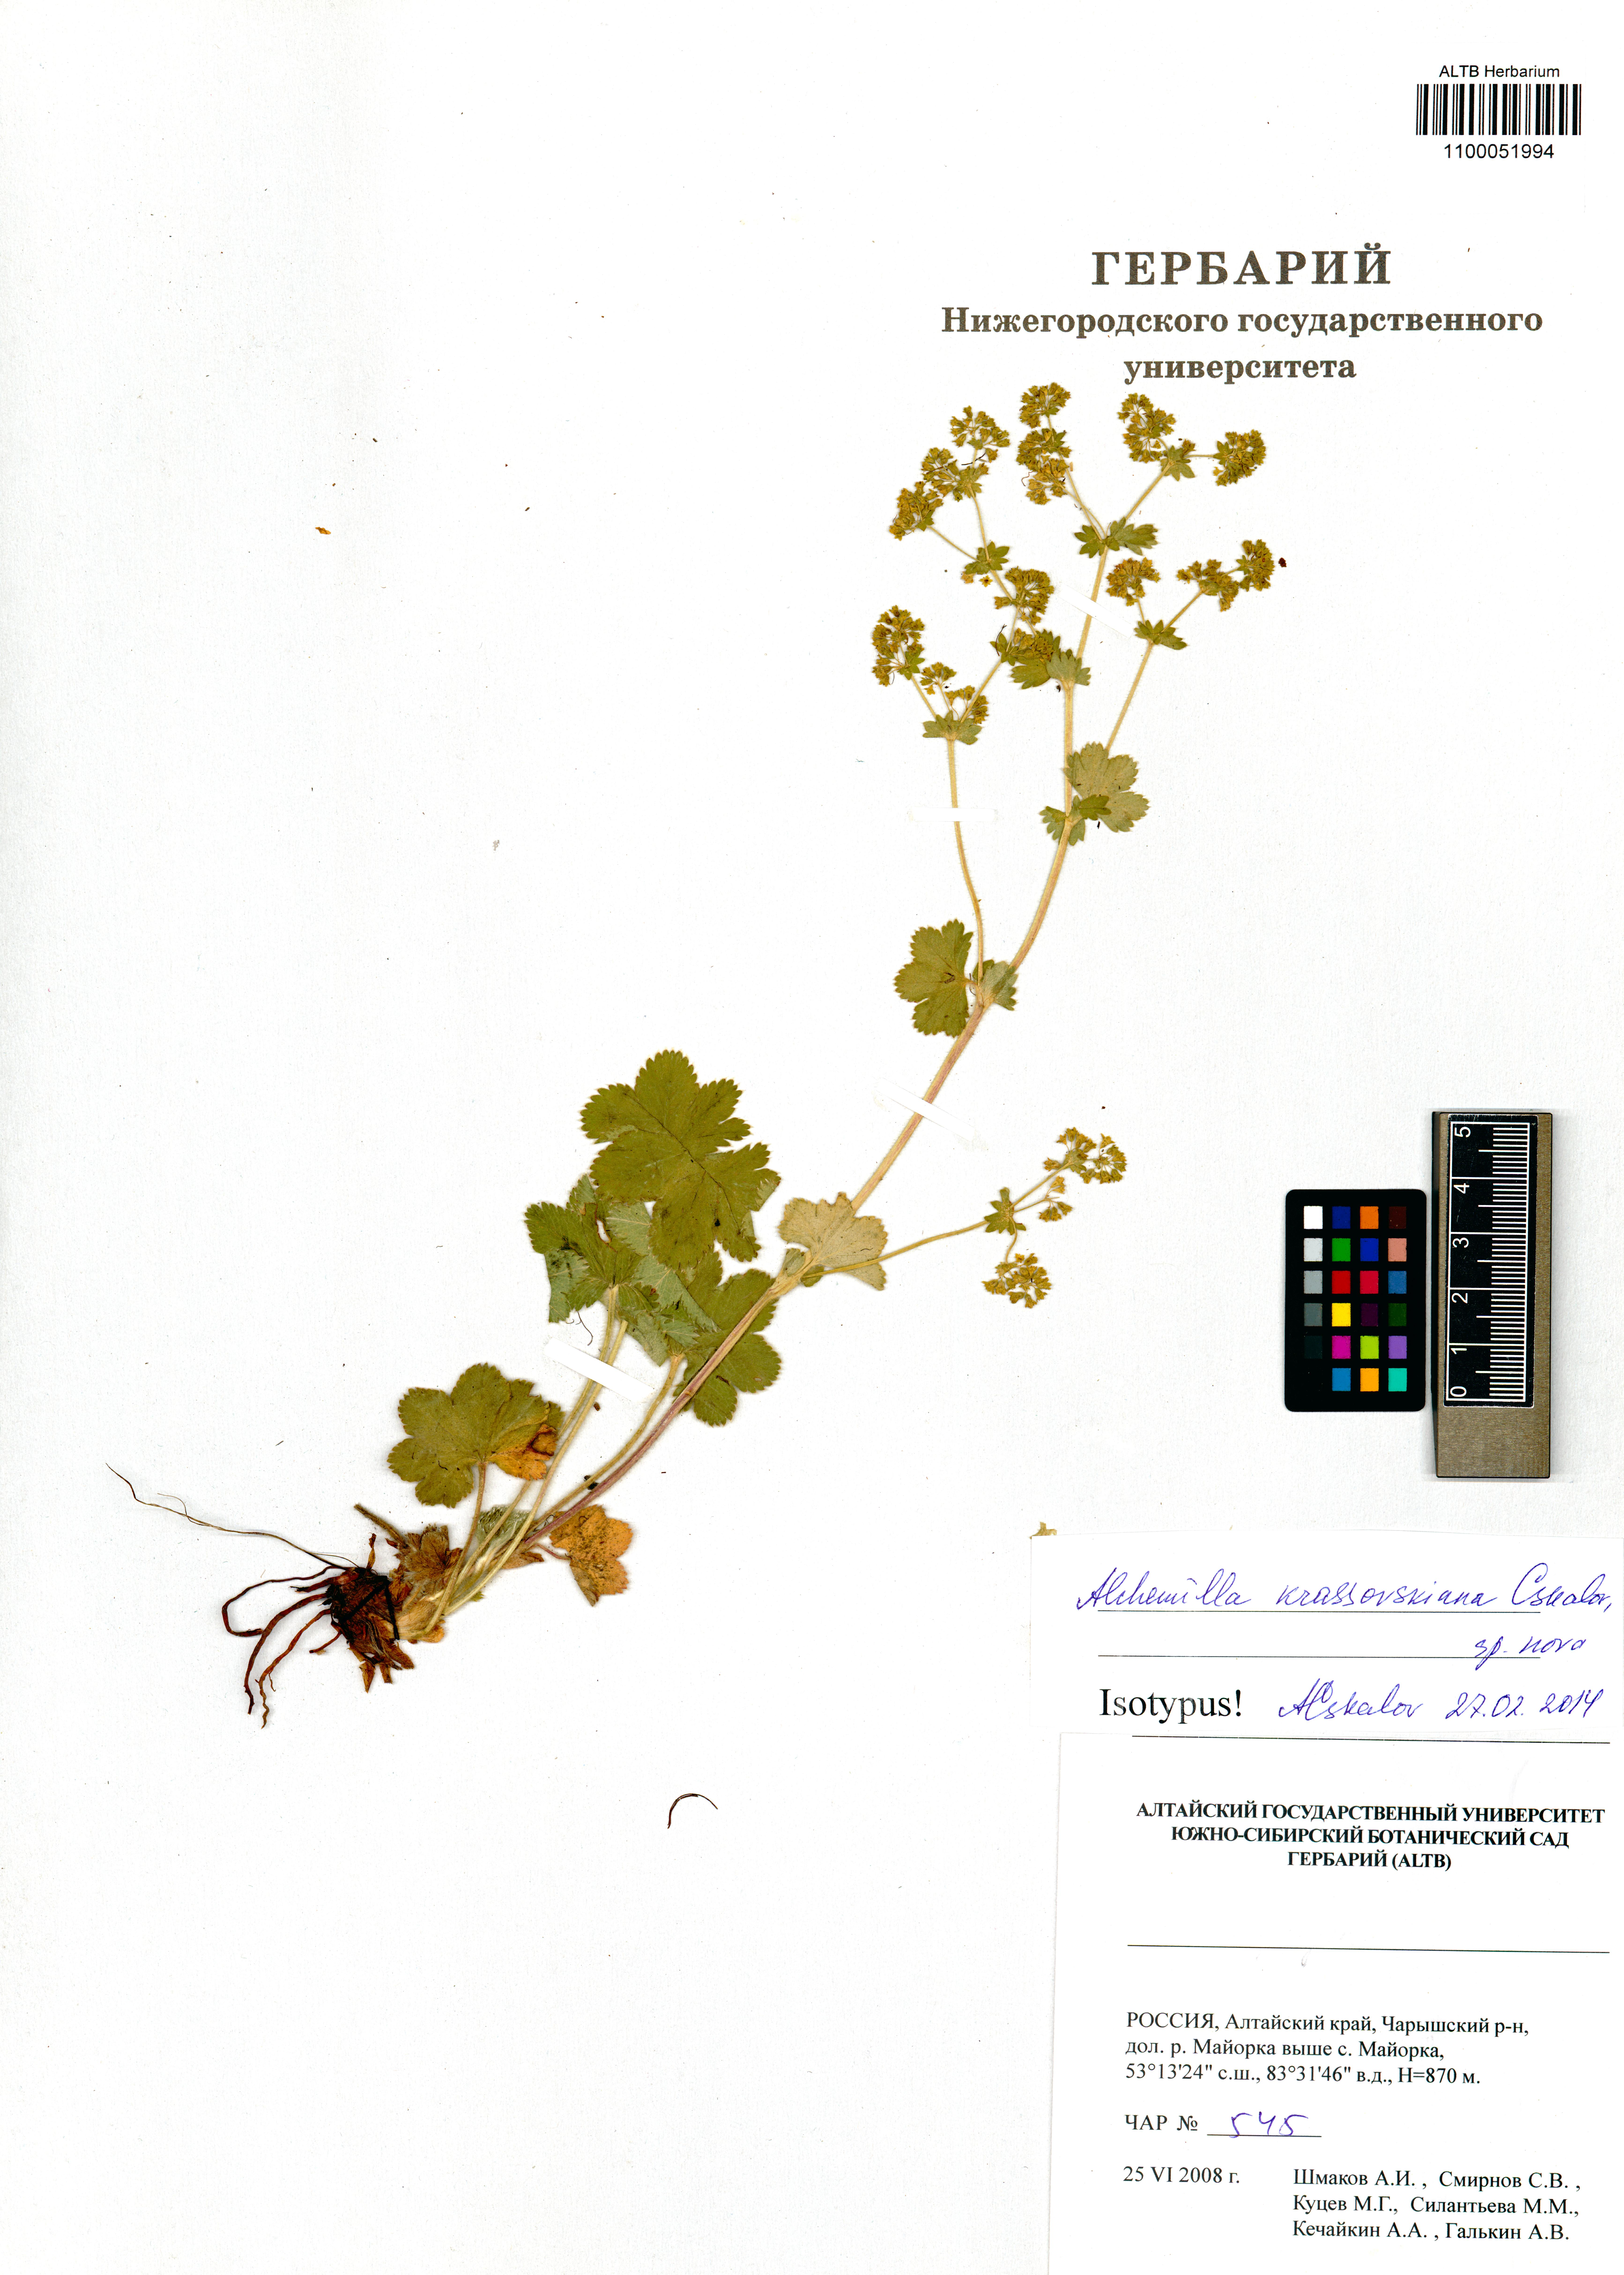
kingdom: Plantae
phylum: Tracheophyta
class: Magnoliopsida
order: Rosales
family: Rosaceae
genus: Alchemilla
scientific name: Alchemilla krassovskiana
